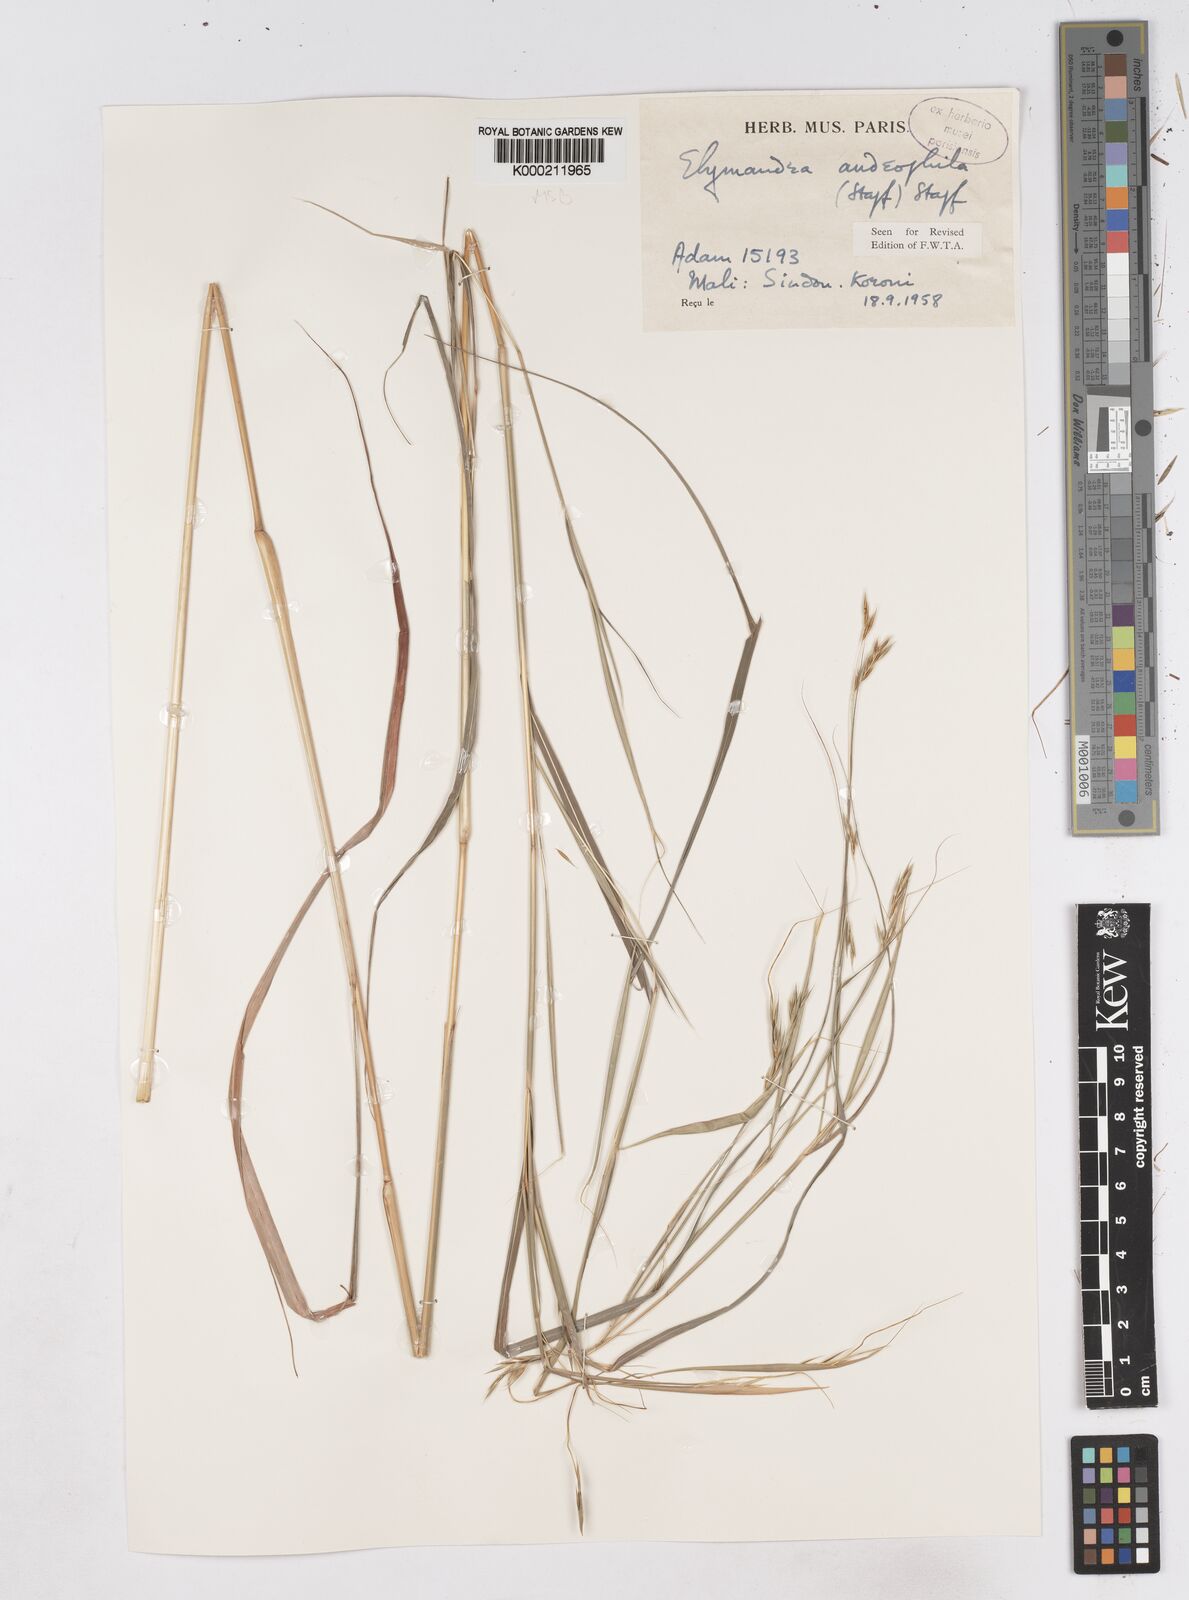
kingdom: Plantae
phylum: Tracheophyta
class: Liliopsida
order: Poales
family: Poaceae
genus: Elymandra
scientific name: Elymandra androphila
